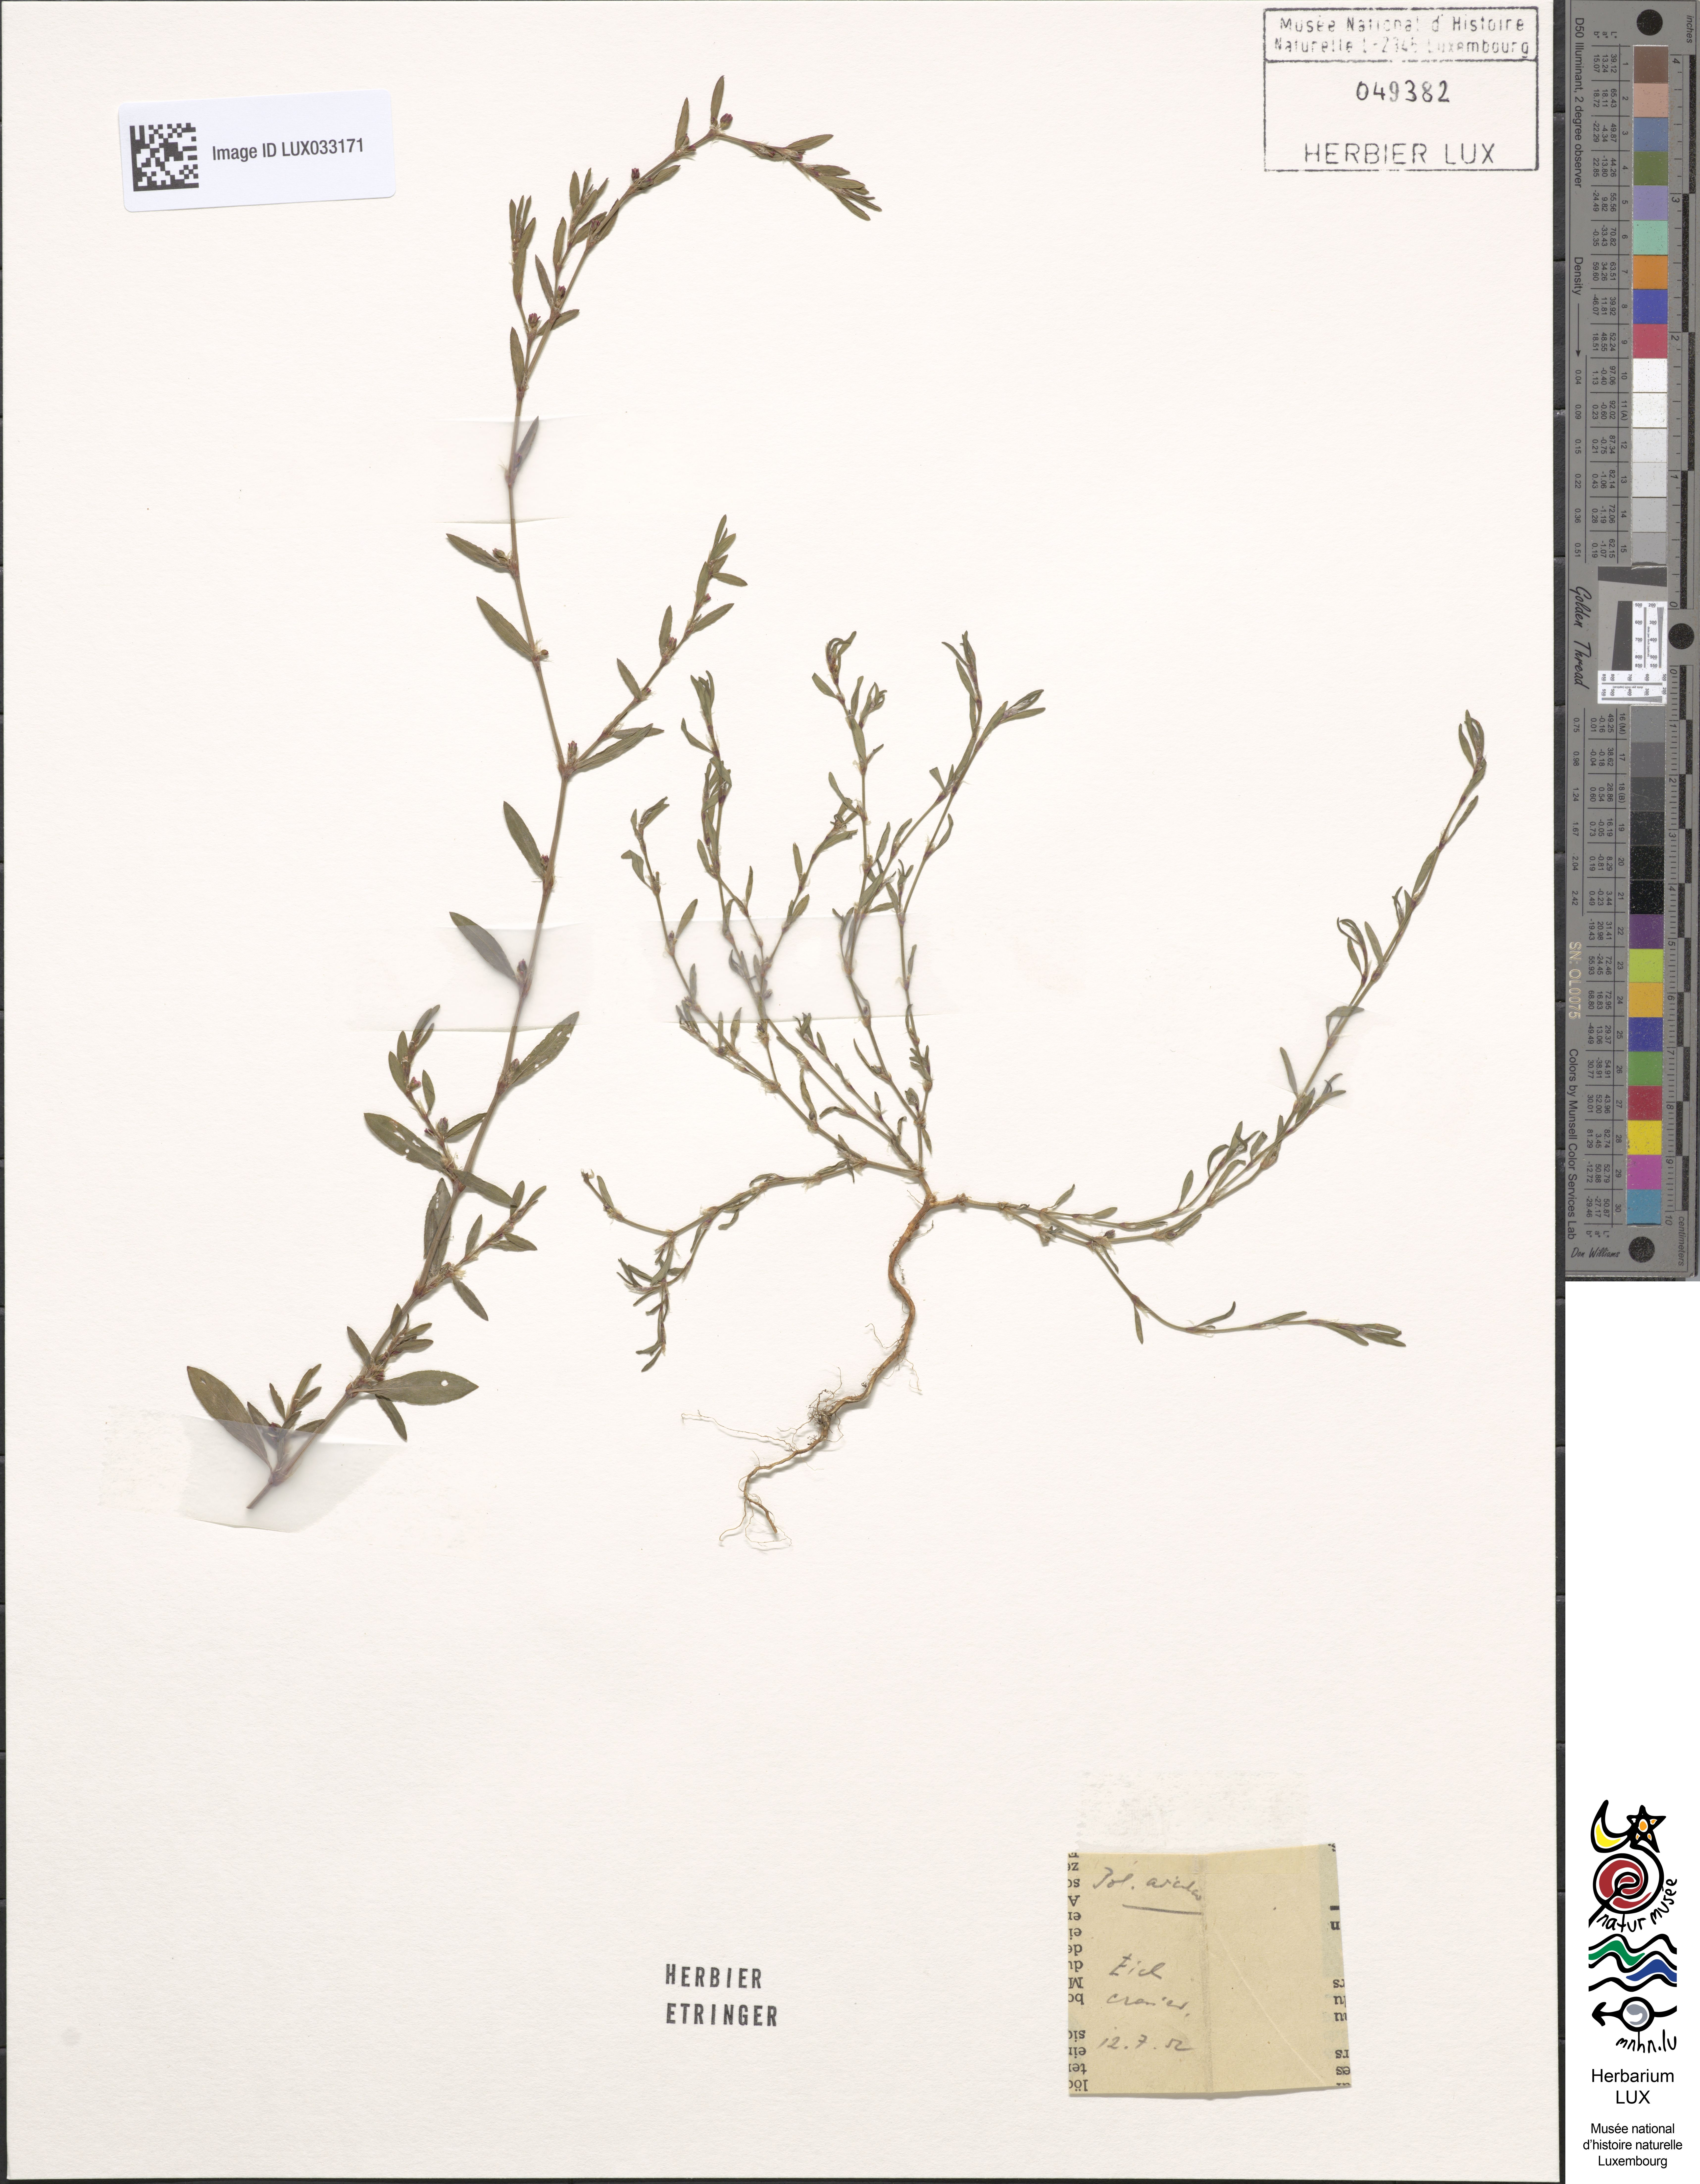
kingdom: Plantae
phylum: Tracheophyta
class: Magnoliopsida
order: Caryophyllales
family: Polygonaceae
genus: Polygonum
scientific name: Polygonum aviculare
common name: Prostrate knotweed
